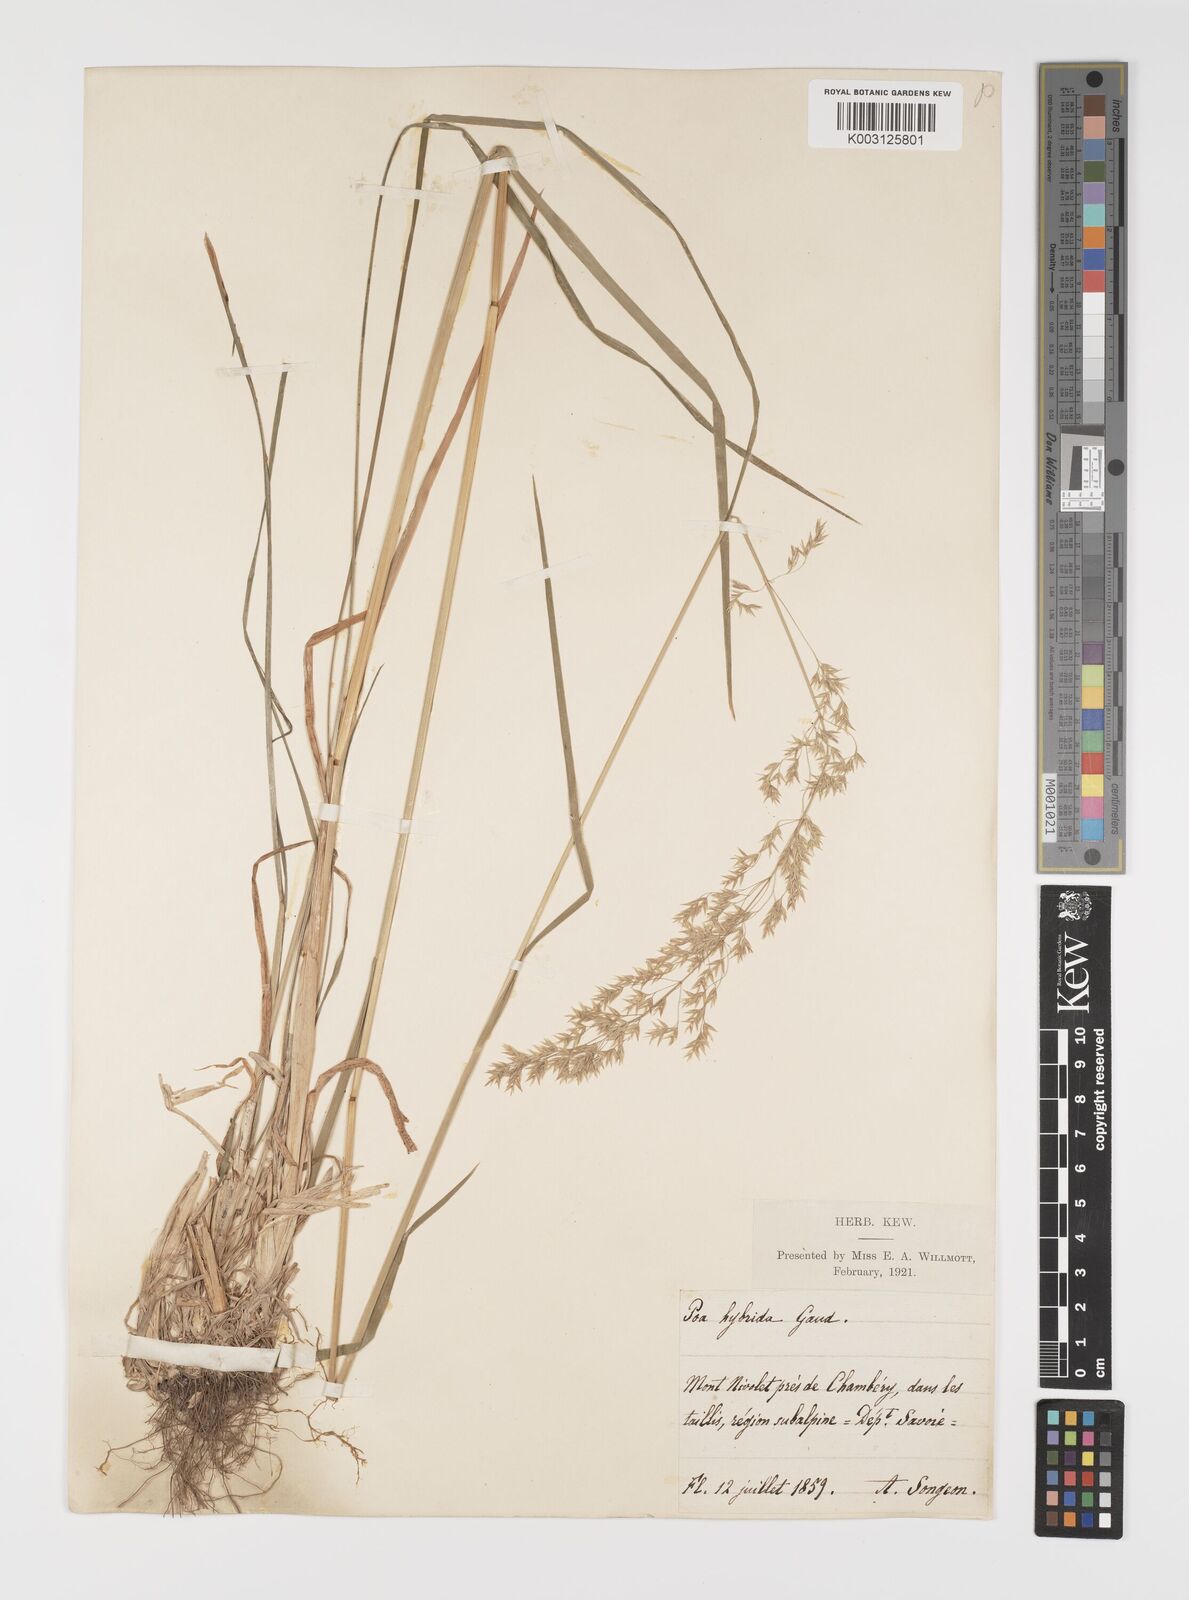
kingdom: Plantae
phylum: Tracheophyta
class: Liliopsida
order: Poales
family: Poaceae
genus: Poa
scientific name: Poa hybrida
